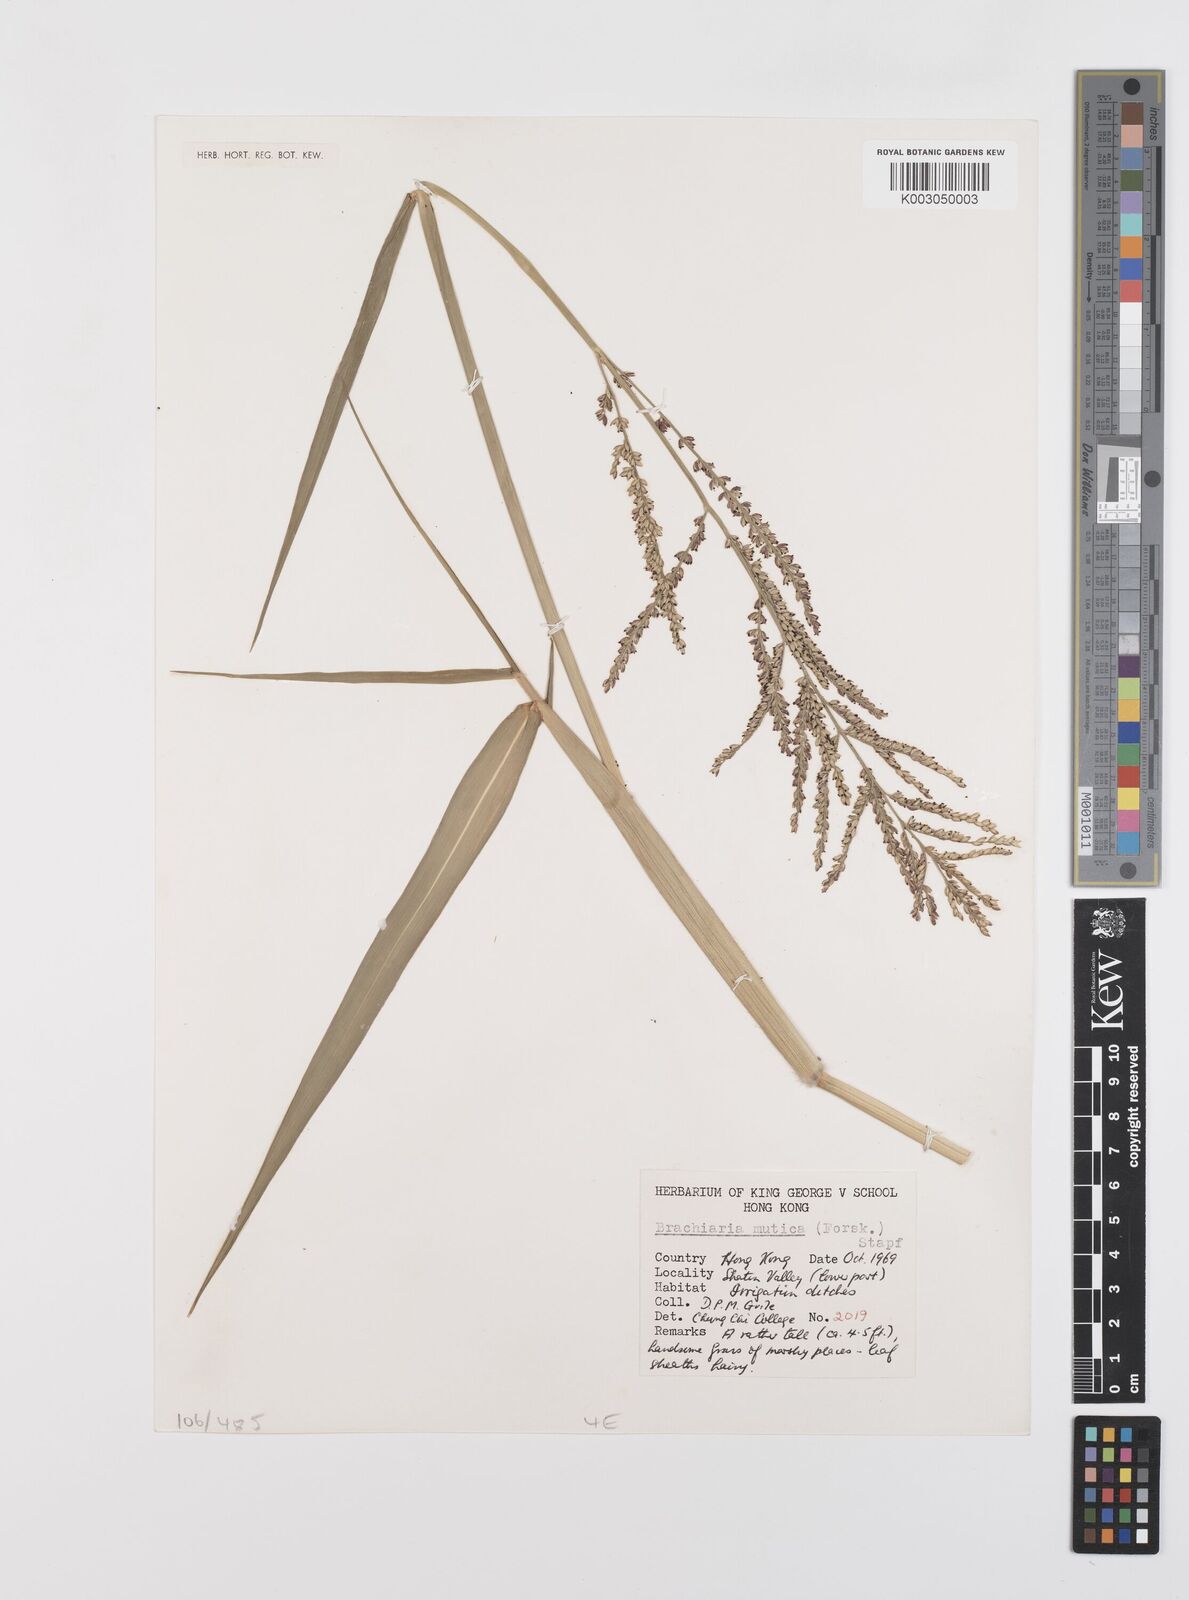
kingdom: Plantae
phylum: Tracheophyta
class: Liliopsida
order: Poales
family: Poaceae
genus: Urochloa
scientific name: Urochloa mutica
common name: Para grass
